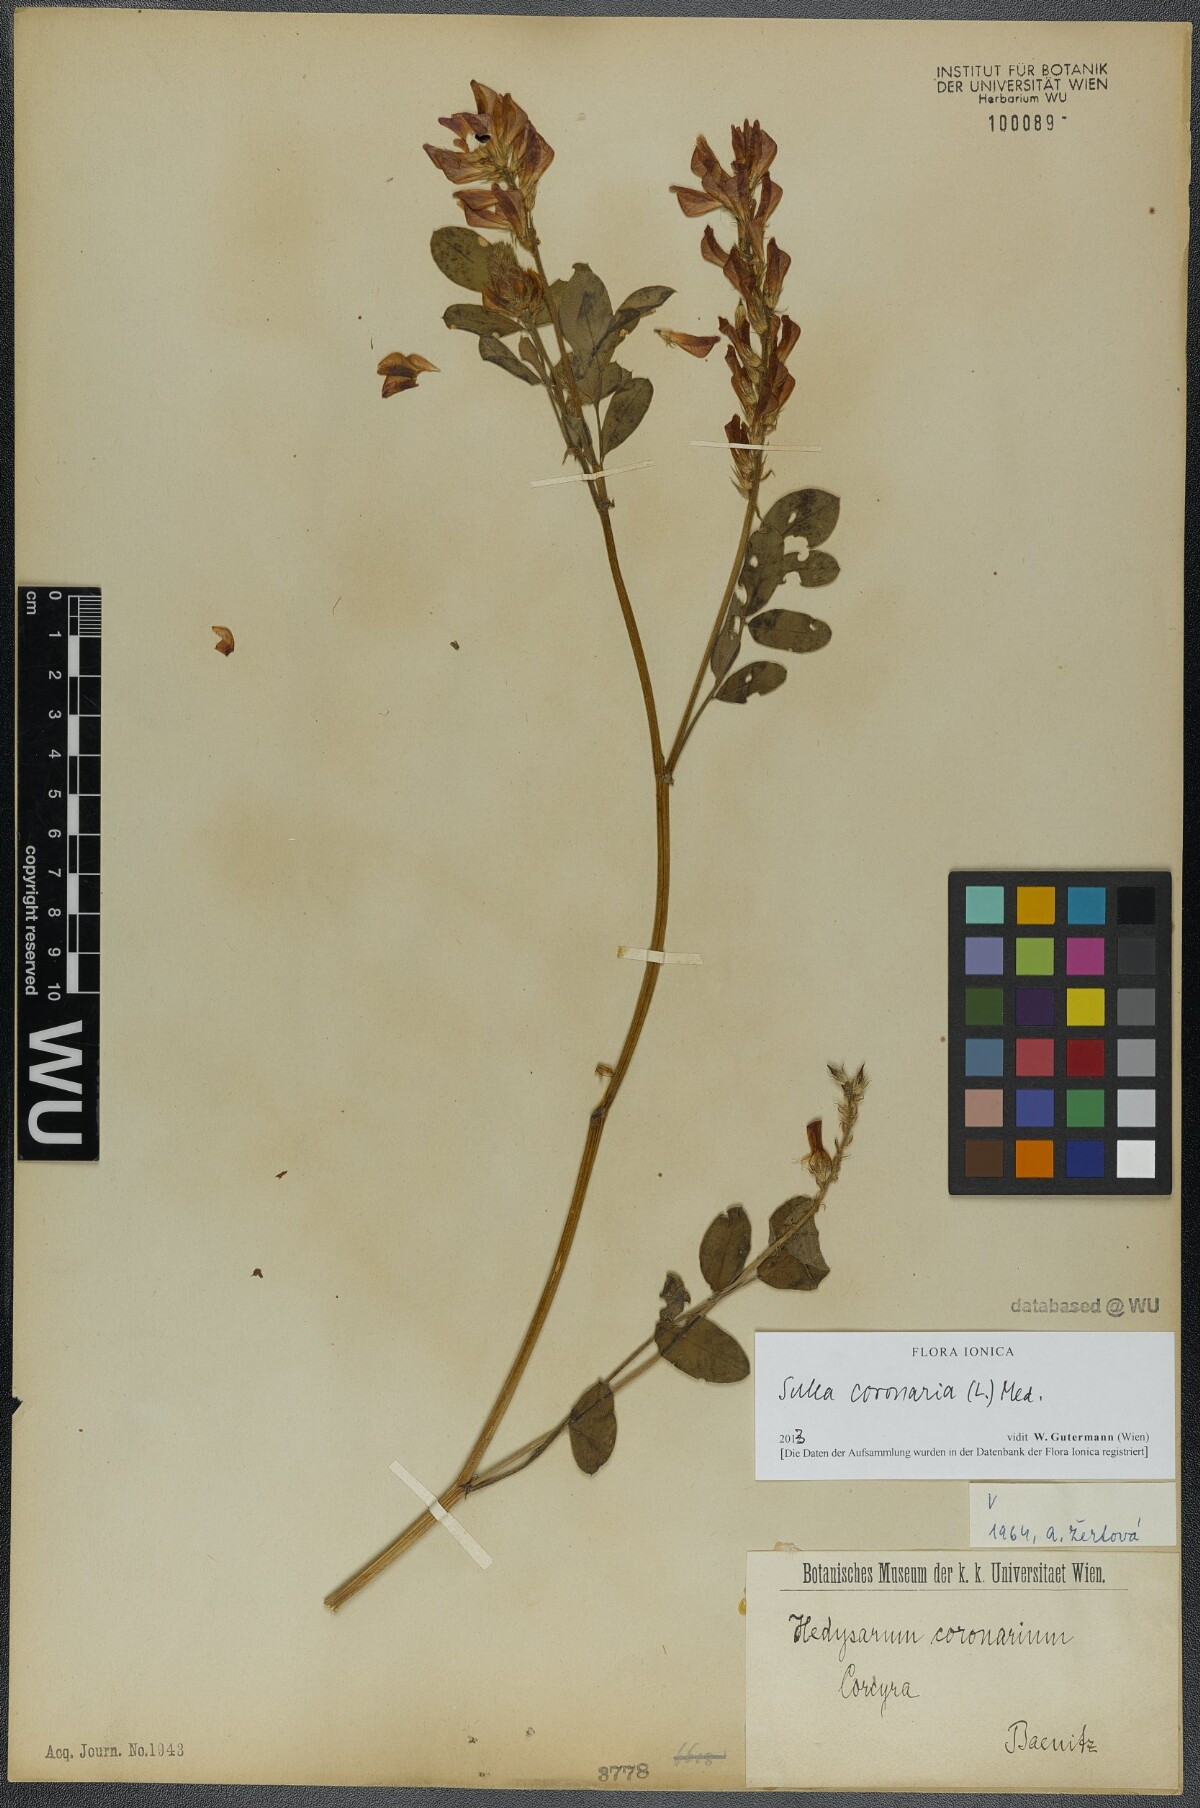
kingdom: Plantae
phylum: Tracheophyta
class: Magnoliopsida
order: Fabales
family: Fabaceae
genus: Sulla
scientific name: Sulla coronaria
